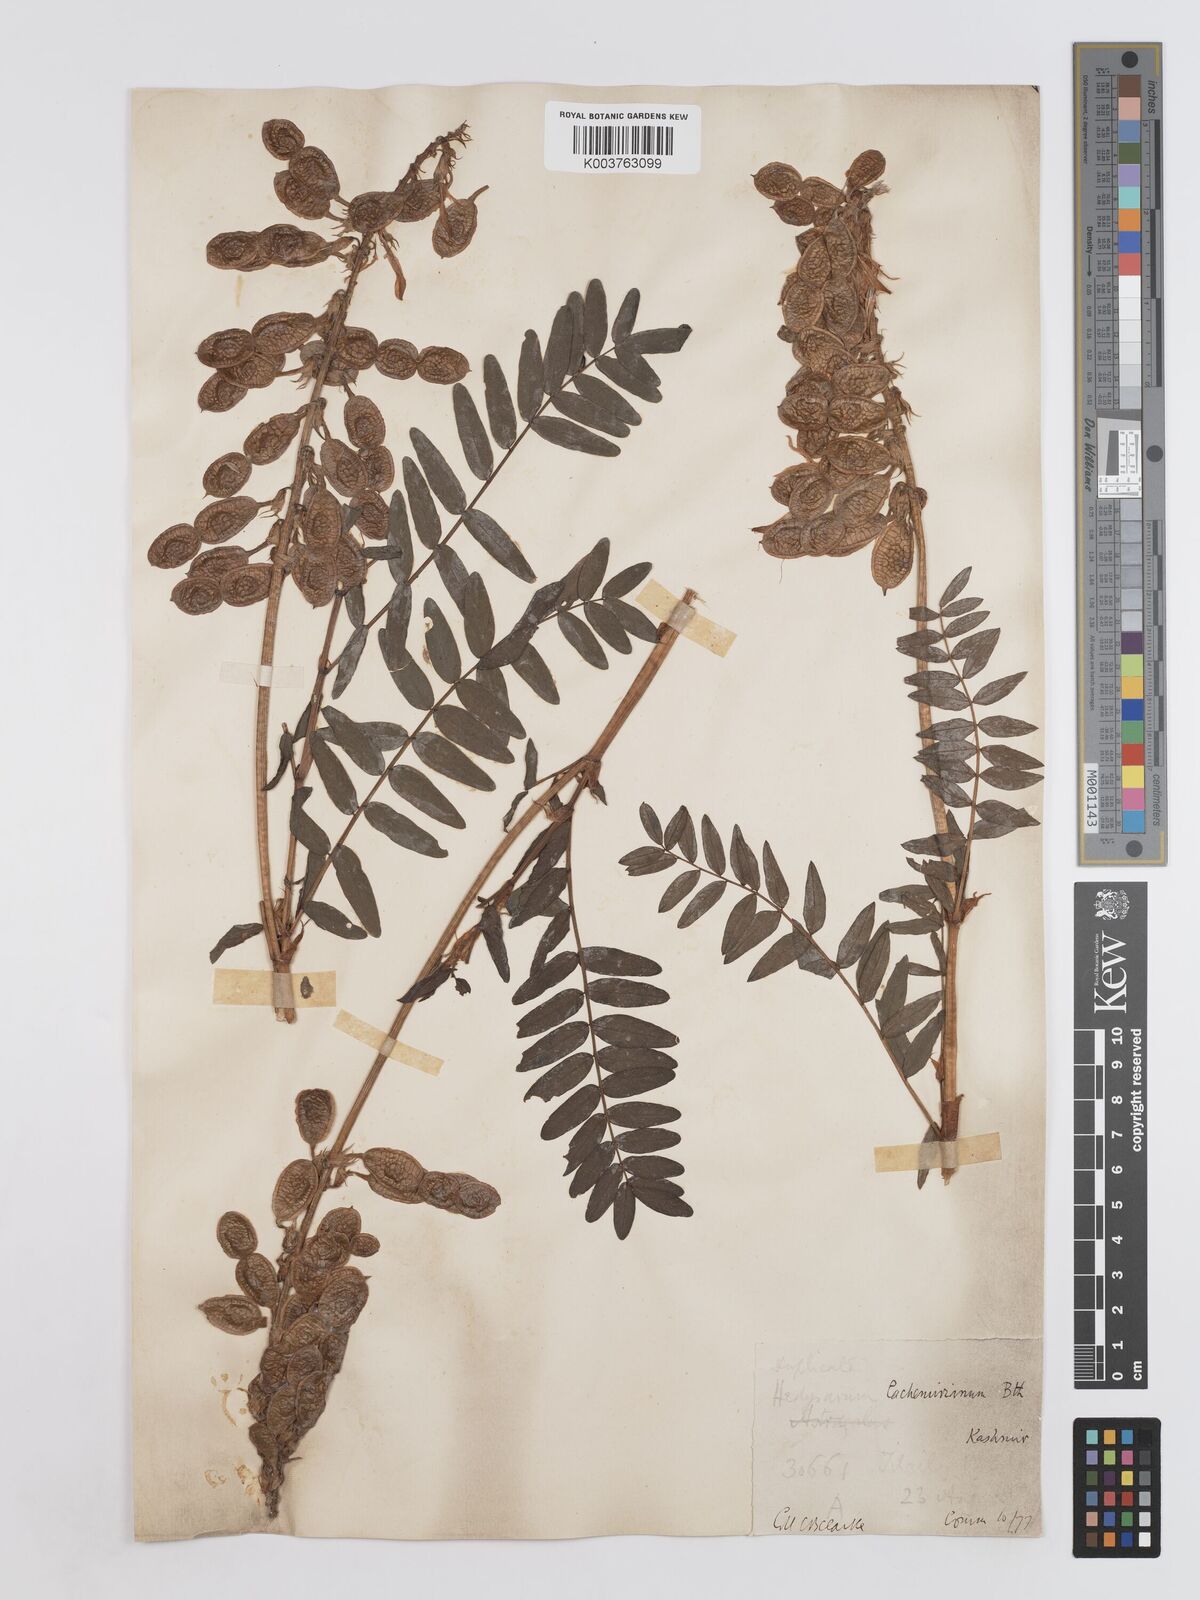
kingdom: Plantae
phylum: Tracheophyta
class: Magnoliopsida
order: Fabales
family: Fabaceae
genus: Hedysarum
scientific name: Hedysarum cachemirianum
